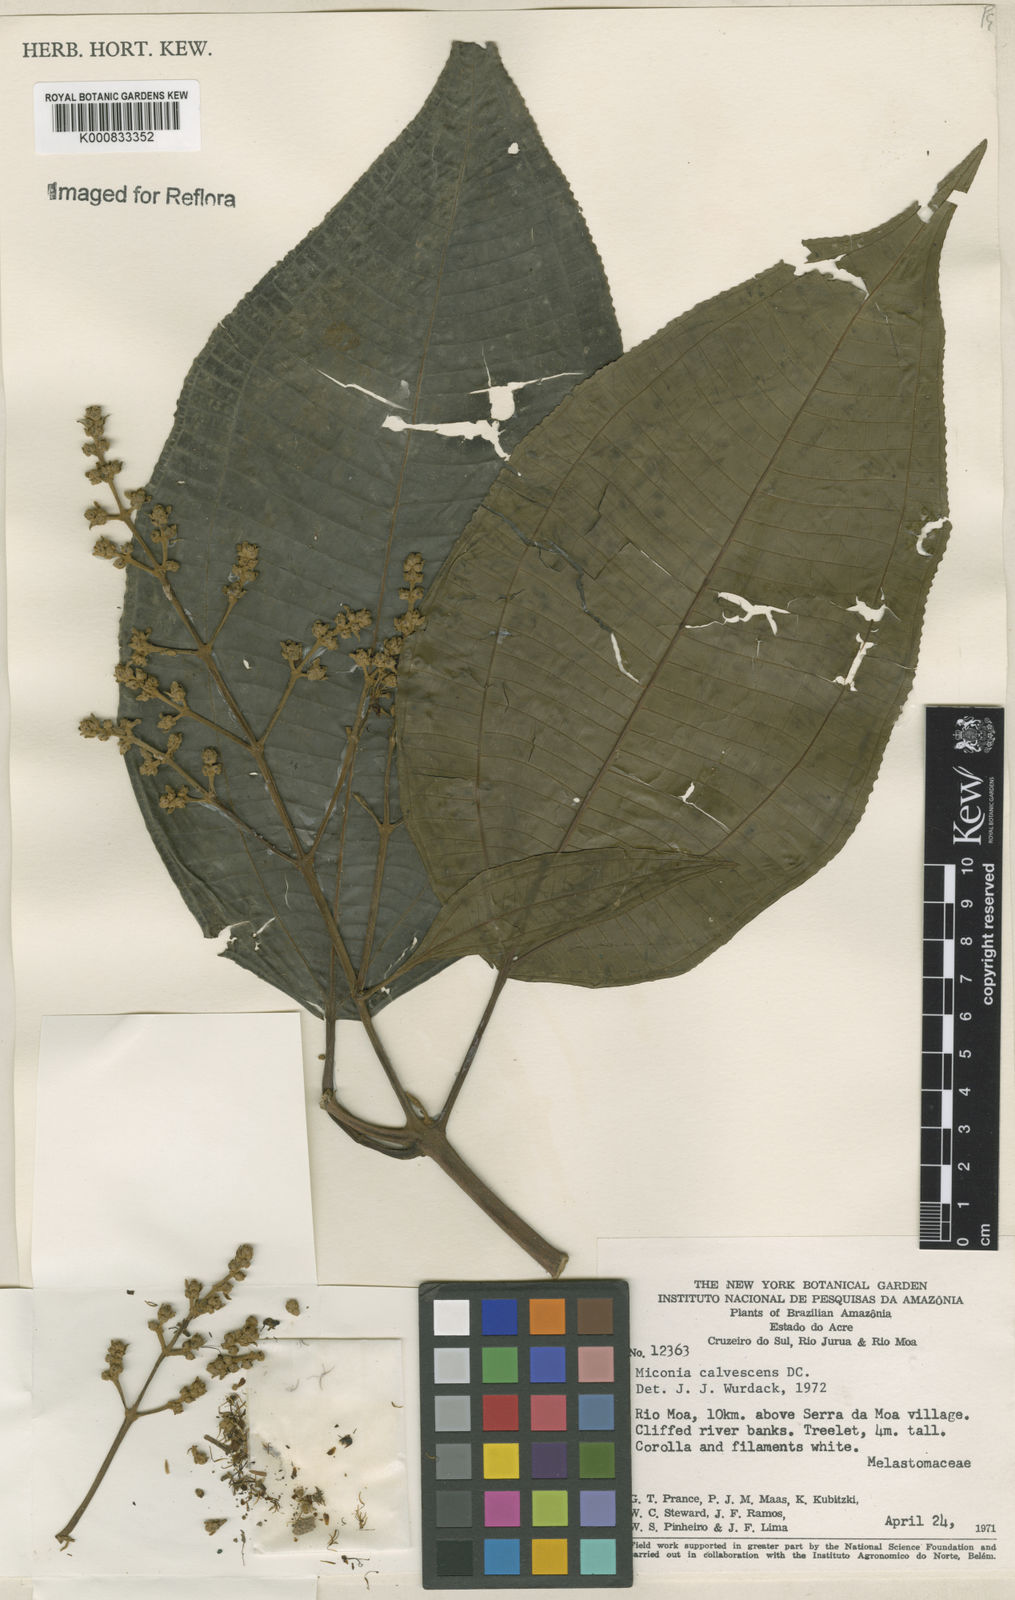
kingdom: Plantae
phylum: Tracheophyta
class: Magnoliopsida
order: Myrtales
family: Melastomataceae
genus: Miconia
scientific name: Miconia calvescens
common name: Purple plague
